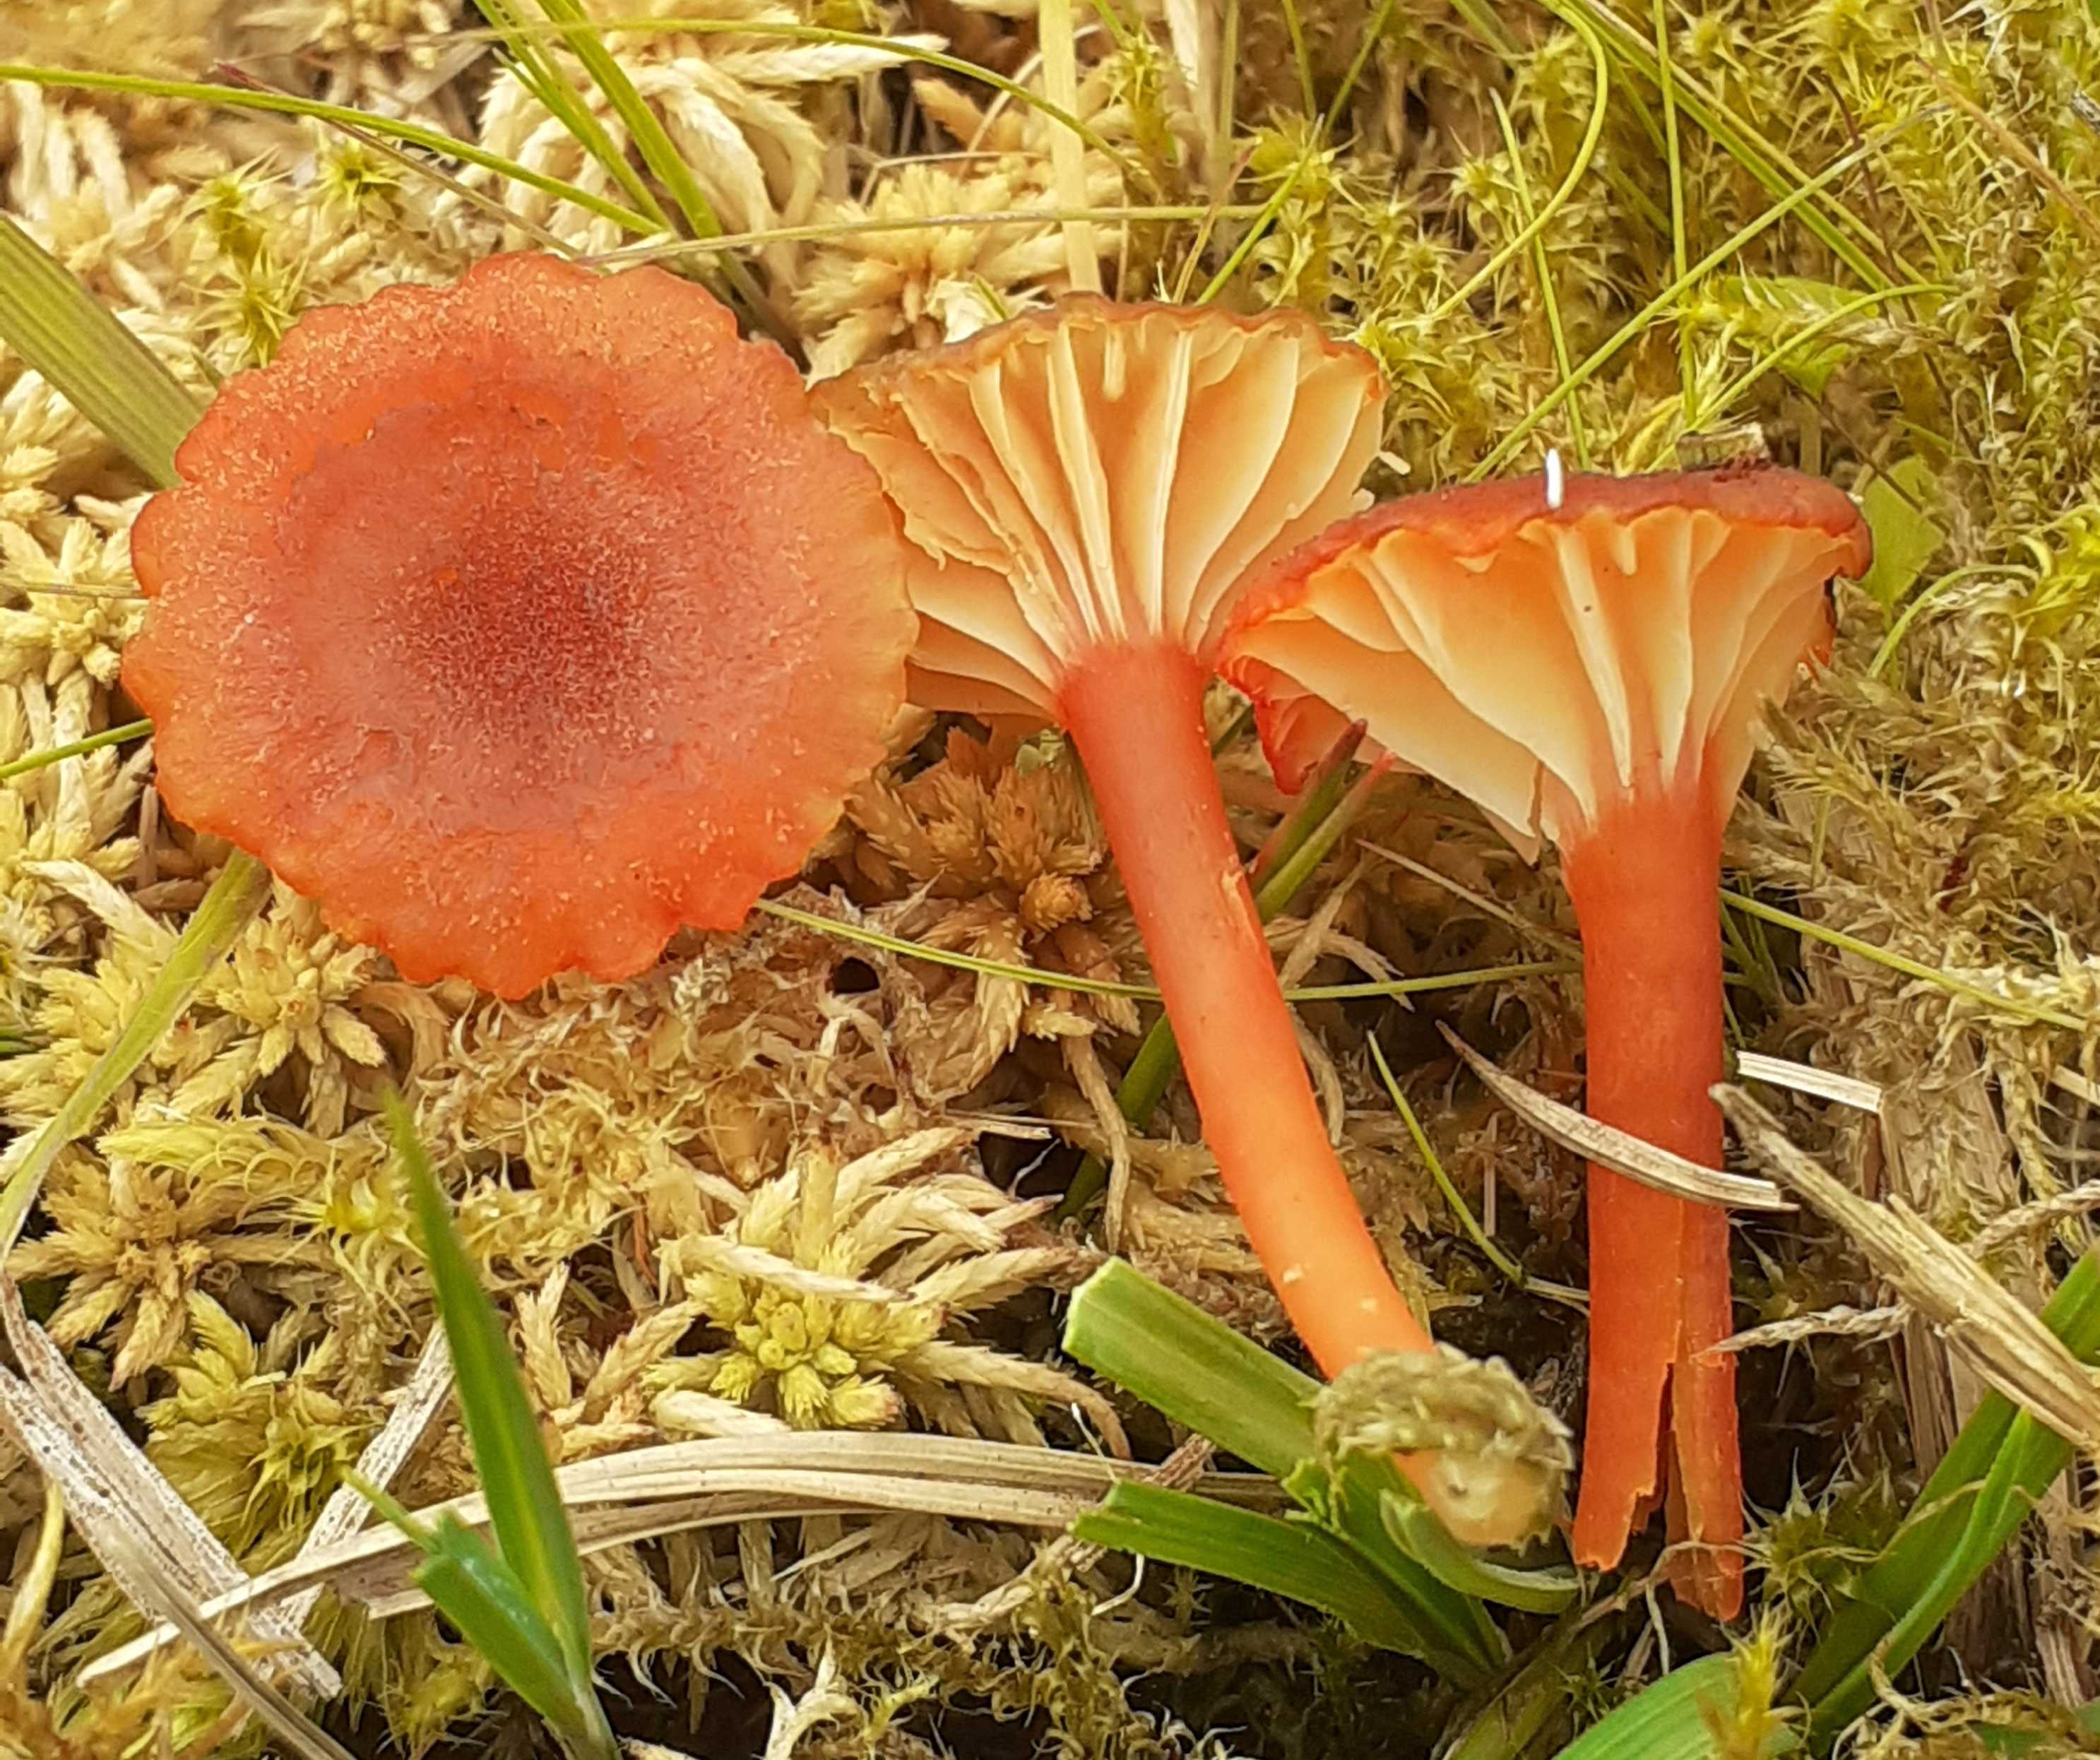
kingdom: Fungi
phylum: Basidiomycota
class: Agaricomycetes
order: Agaricales
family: Hygrophoraceae
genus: Hygrocybe
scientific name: Hygrocybe coccineocrenata
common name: tørvemos-vokshat
